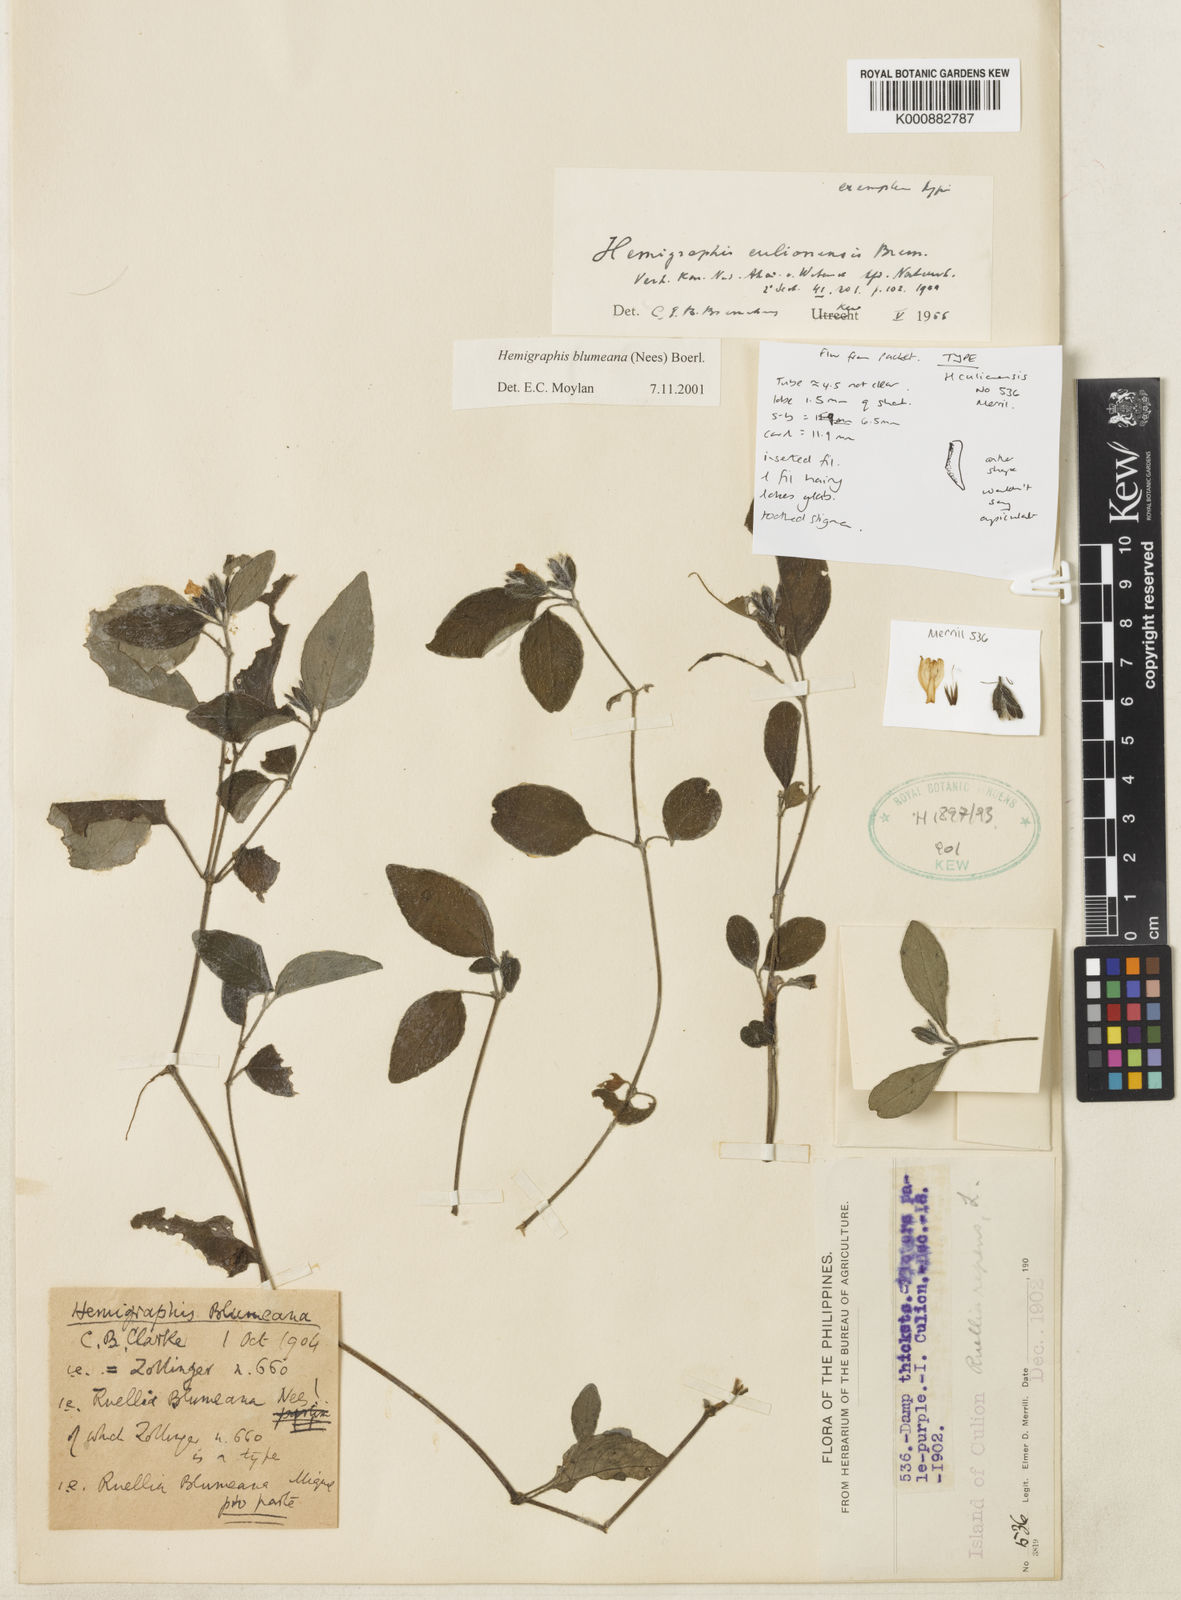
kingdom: Plantae
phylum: Tracheophyta
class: Magnoliopsida
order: Lamiales
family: Acanthaceae
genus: Strobilanthes
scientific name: Strobilanthes blumeana
